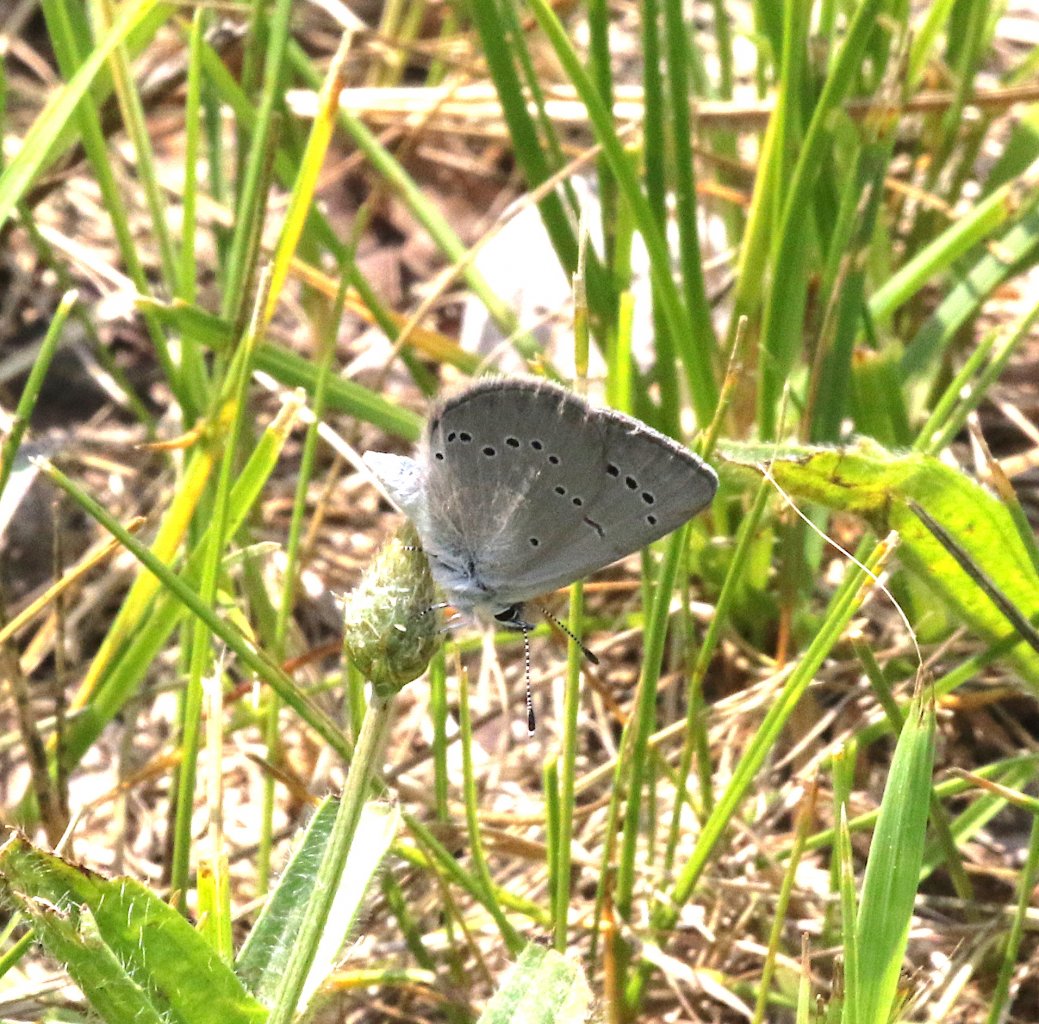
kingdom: Animalia
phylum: Arthropoda
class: Insecta
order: Lepidoptera
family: Lycaenidae
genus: Glaucopsyche
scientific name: Glaucopsyche lygdamus
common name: Silvery Blue
